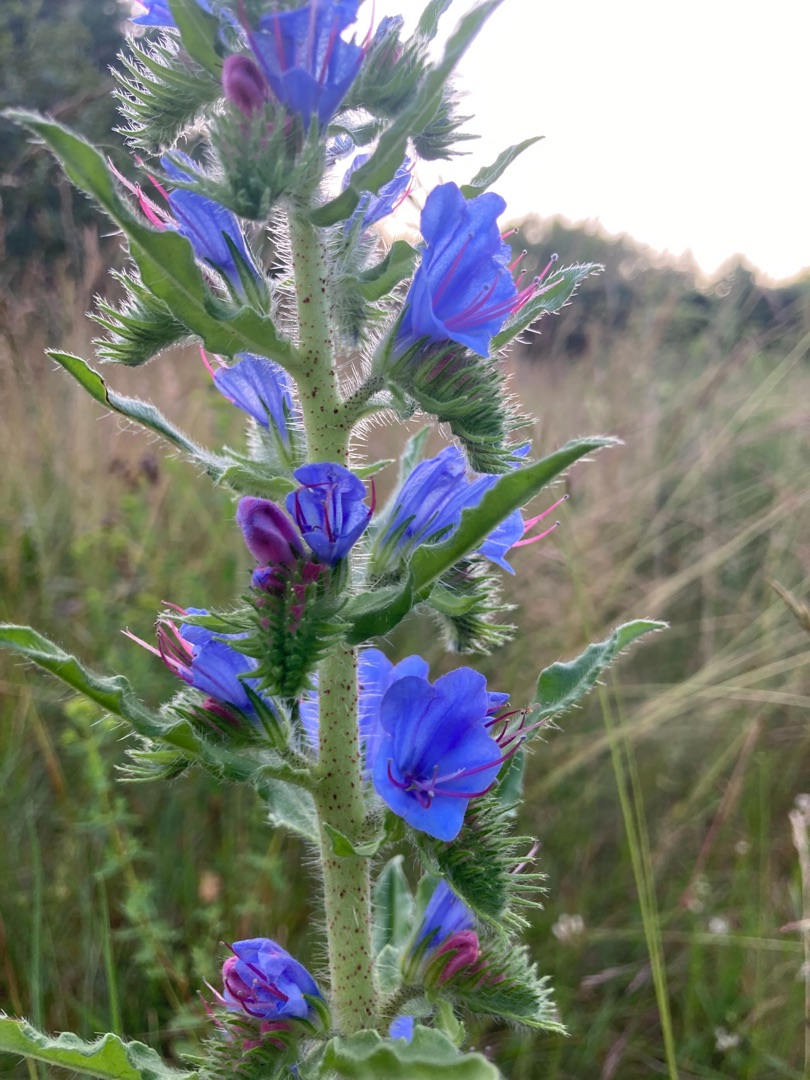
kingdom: Plantae
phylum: Tracheophyta
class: Magnoliopsida
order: Boraginales
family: Boraginaceae
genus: Echium
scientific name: Echium vulgare
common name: Slangehoved
